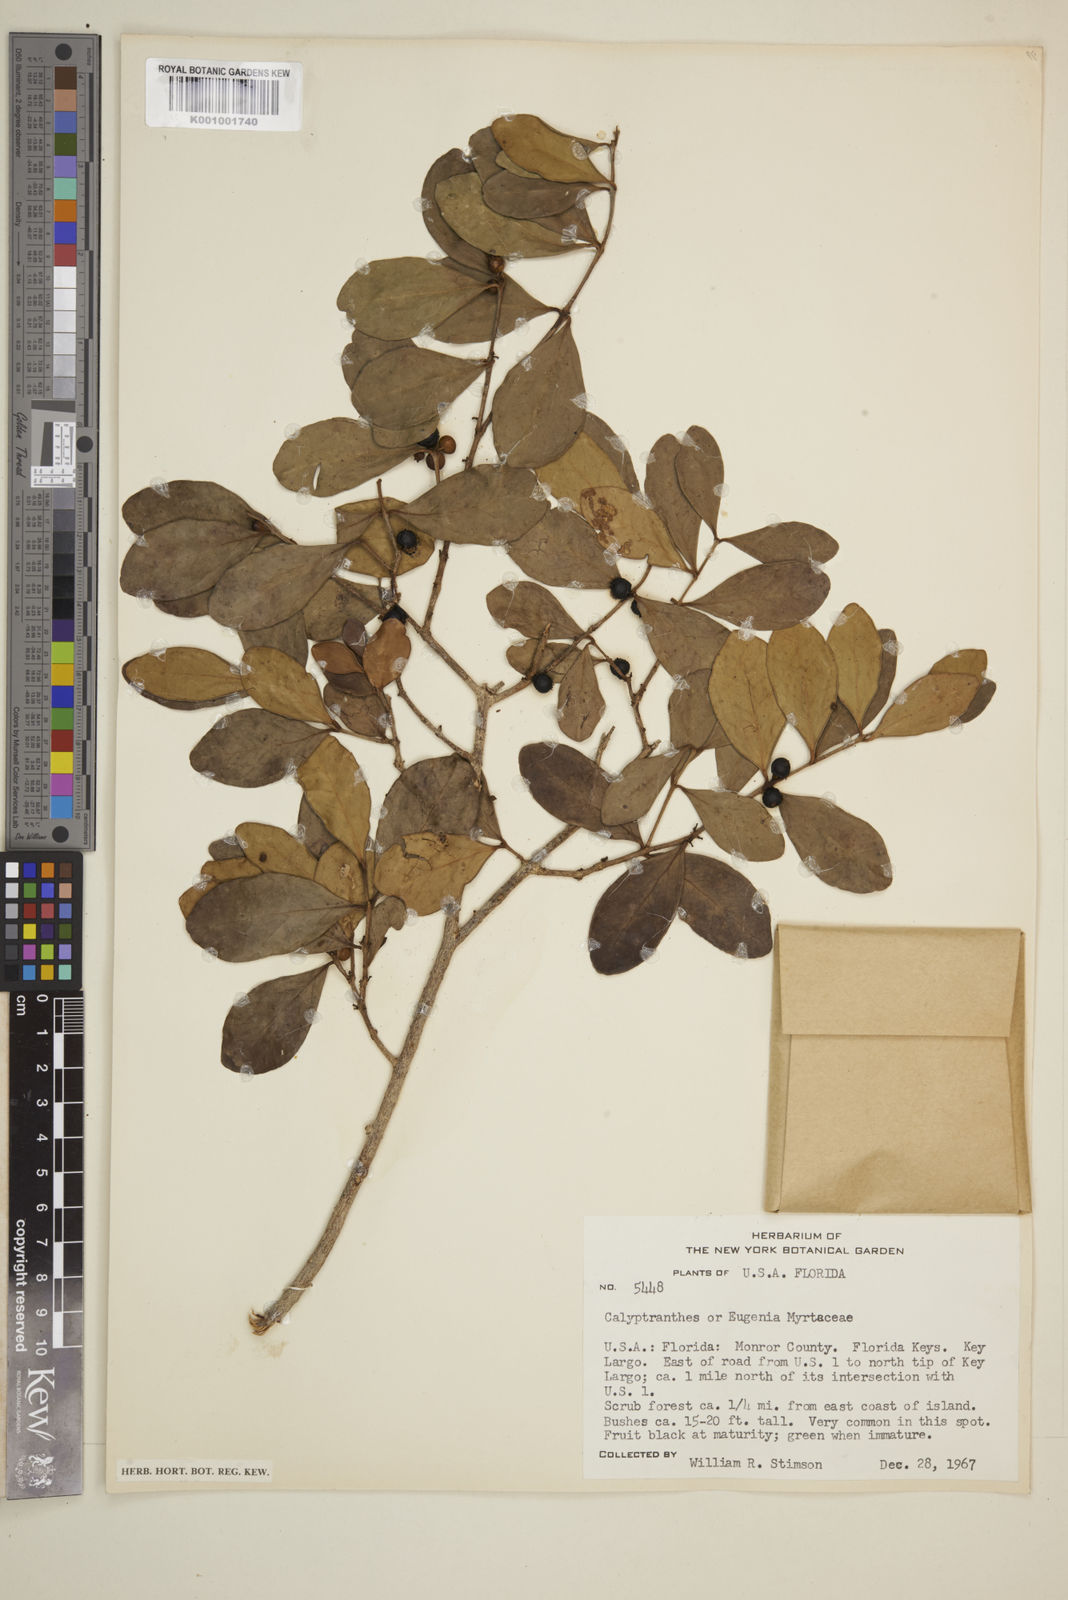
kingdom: Plantae
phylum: Tracheophyta
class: Magnoliopsida
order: Myrtales
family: Myrtaceae
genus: Eugenia
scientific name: Eugenia
